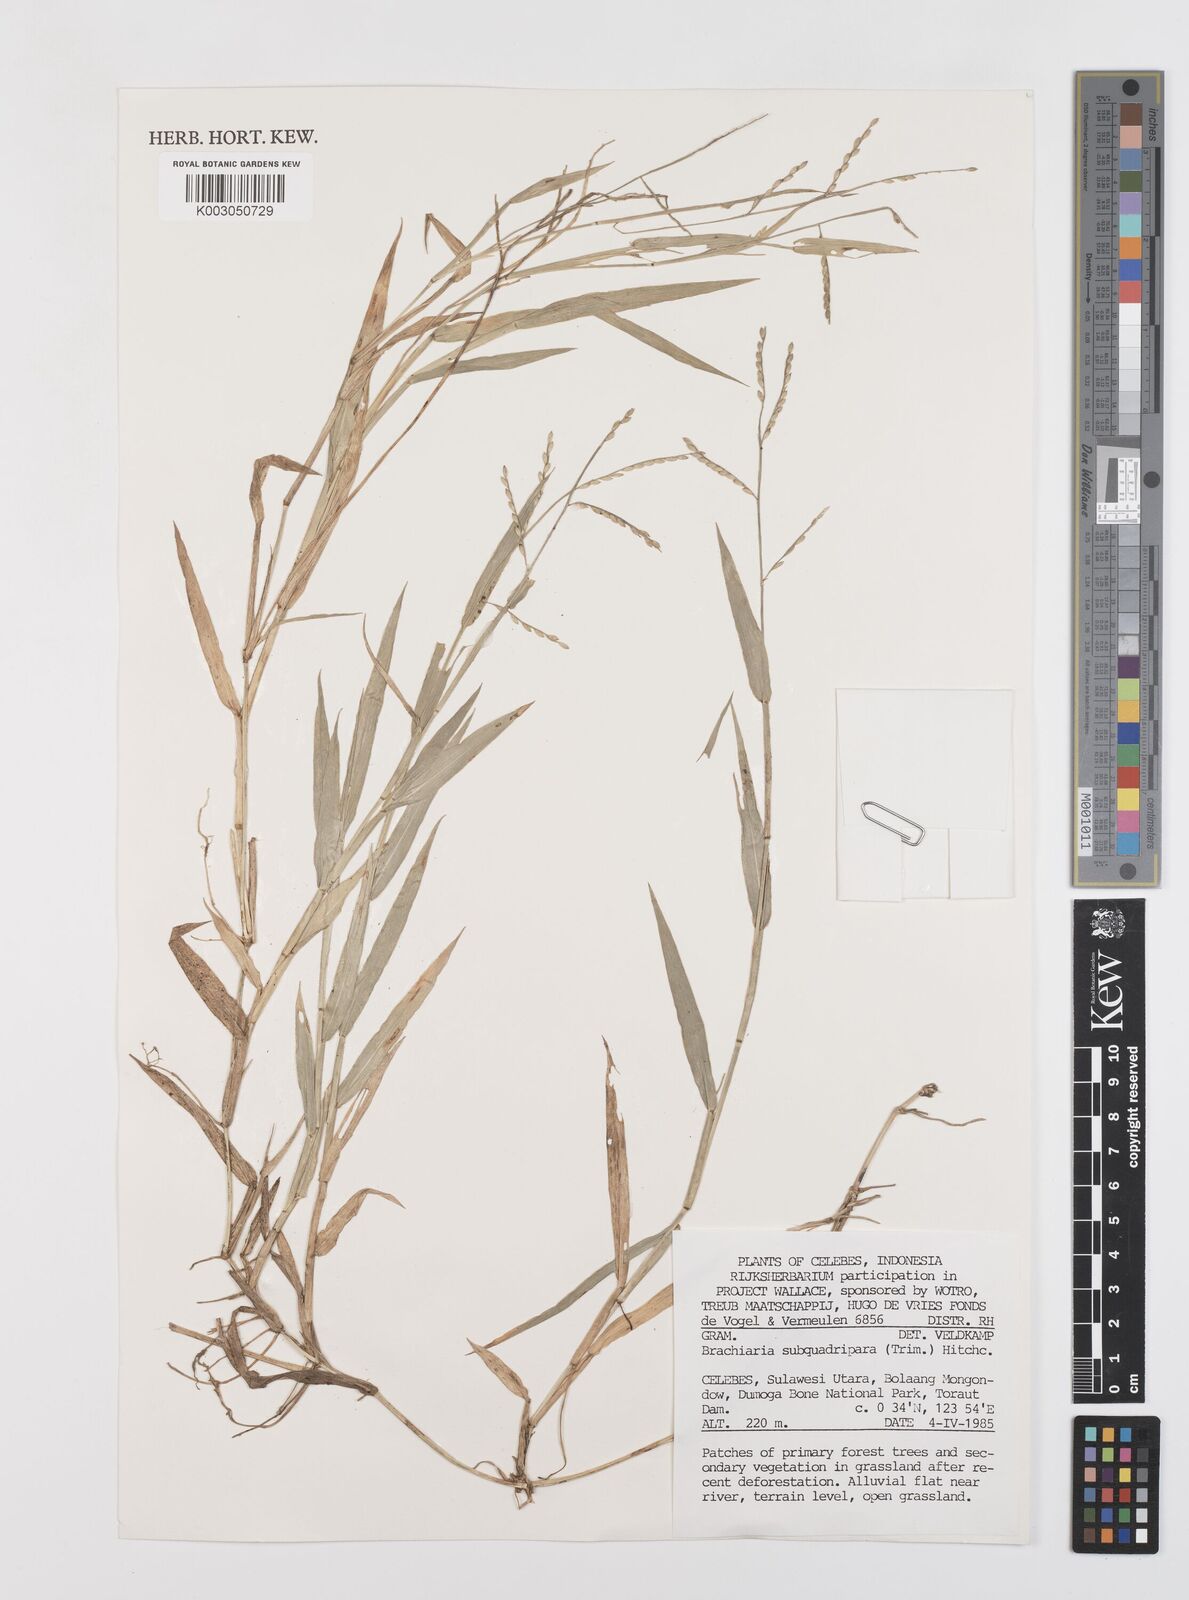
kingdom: Plantae
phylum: Tracheophyta
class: Liliopsida
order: Poales
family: Poaceae
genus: Urochloa
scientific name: Urochloa subquadripara
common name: Armgrass millet
